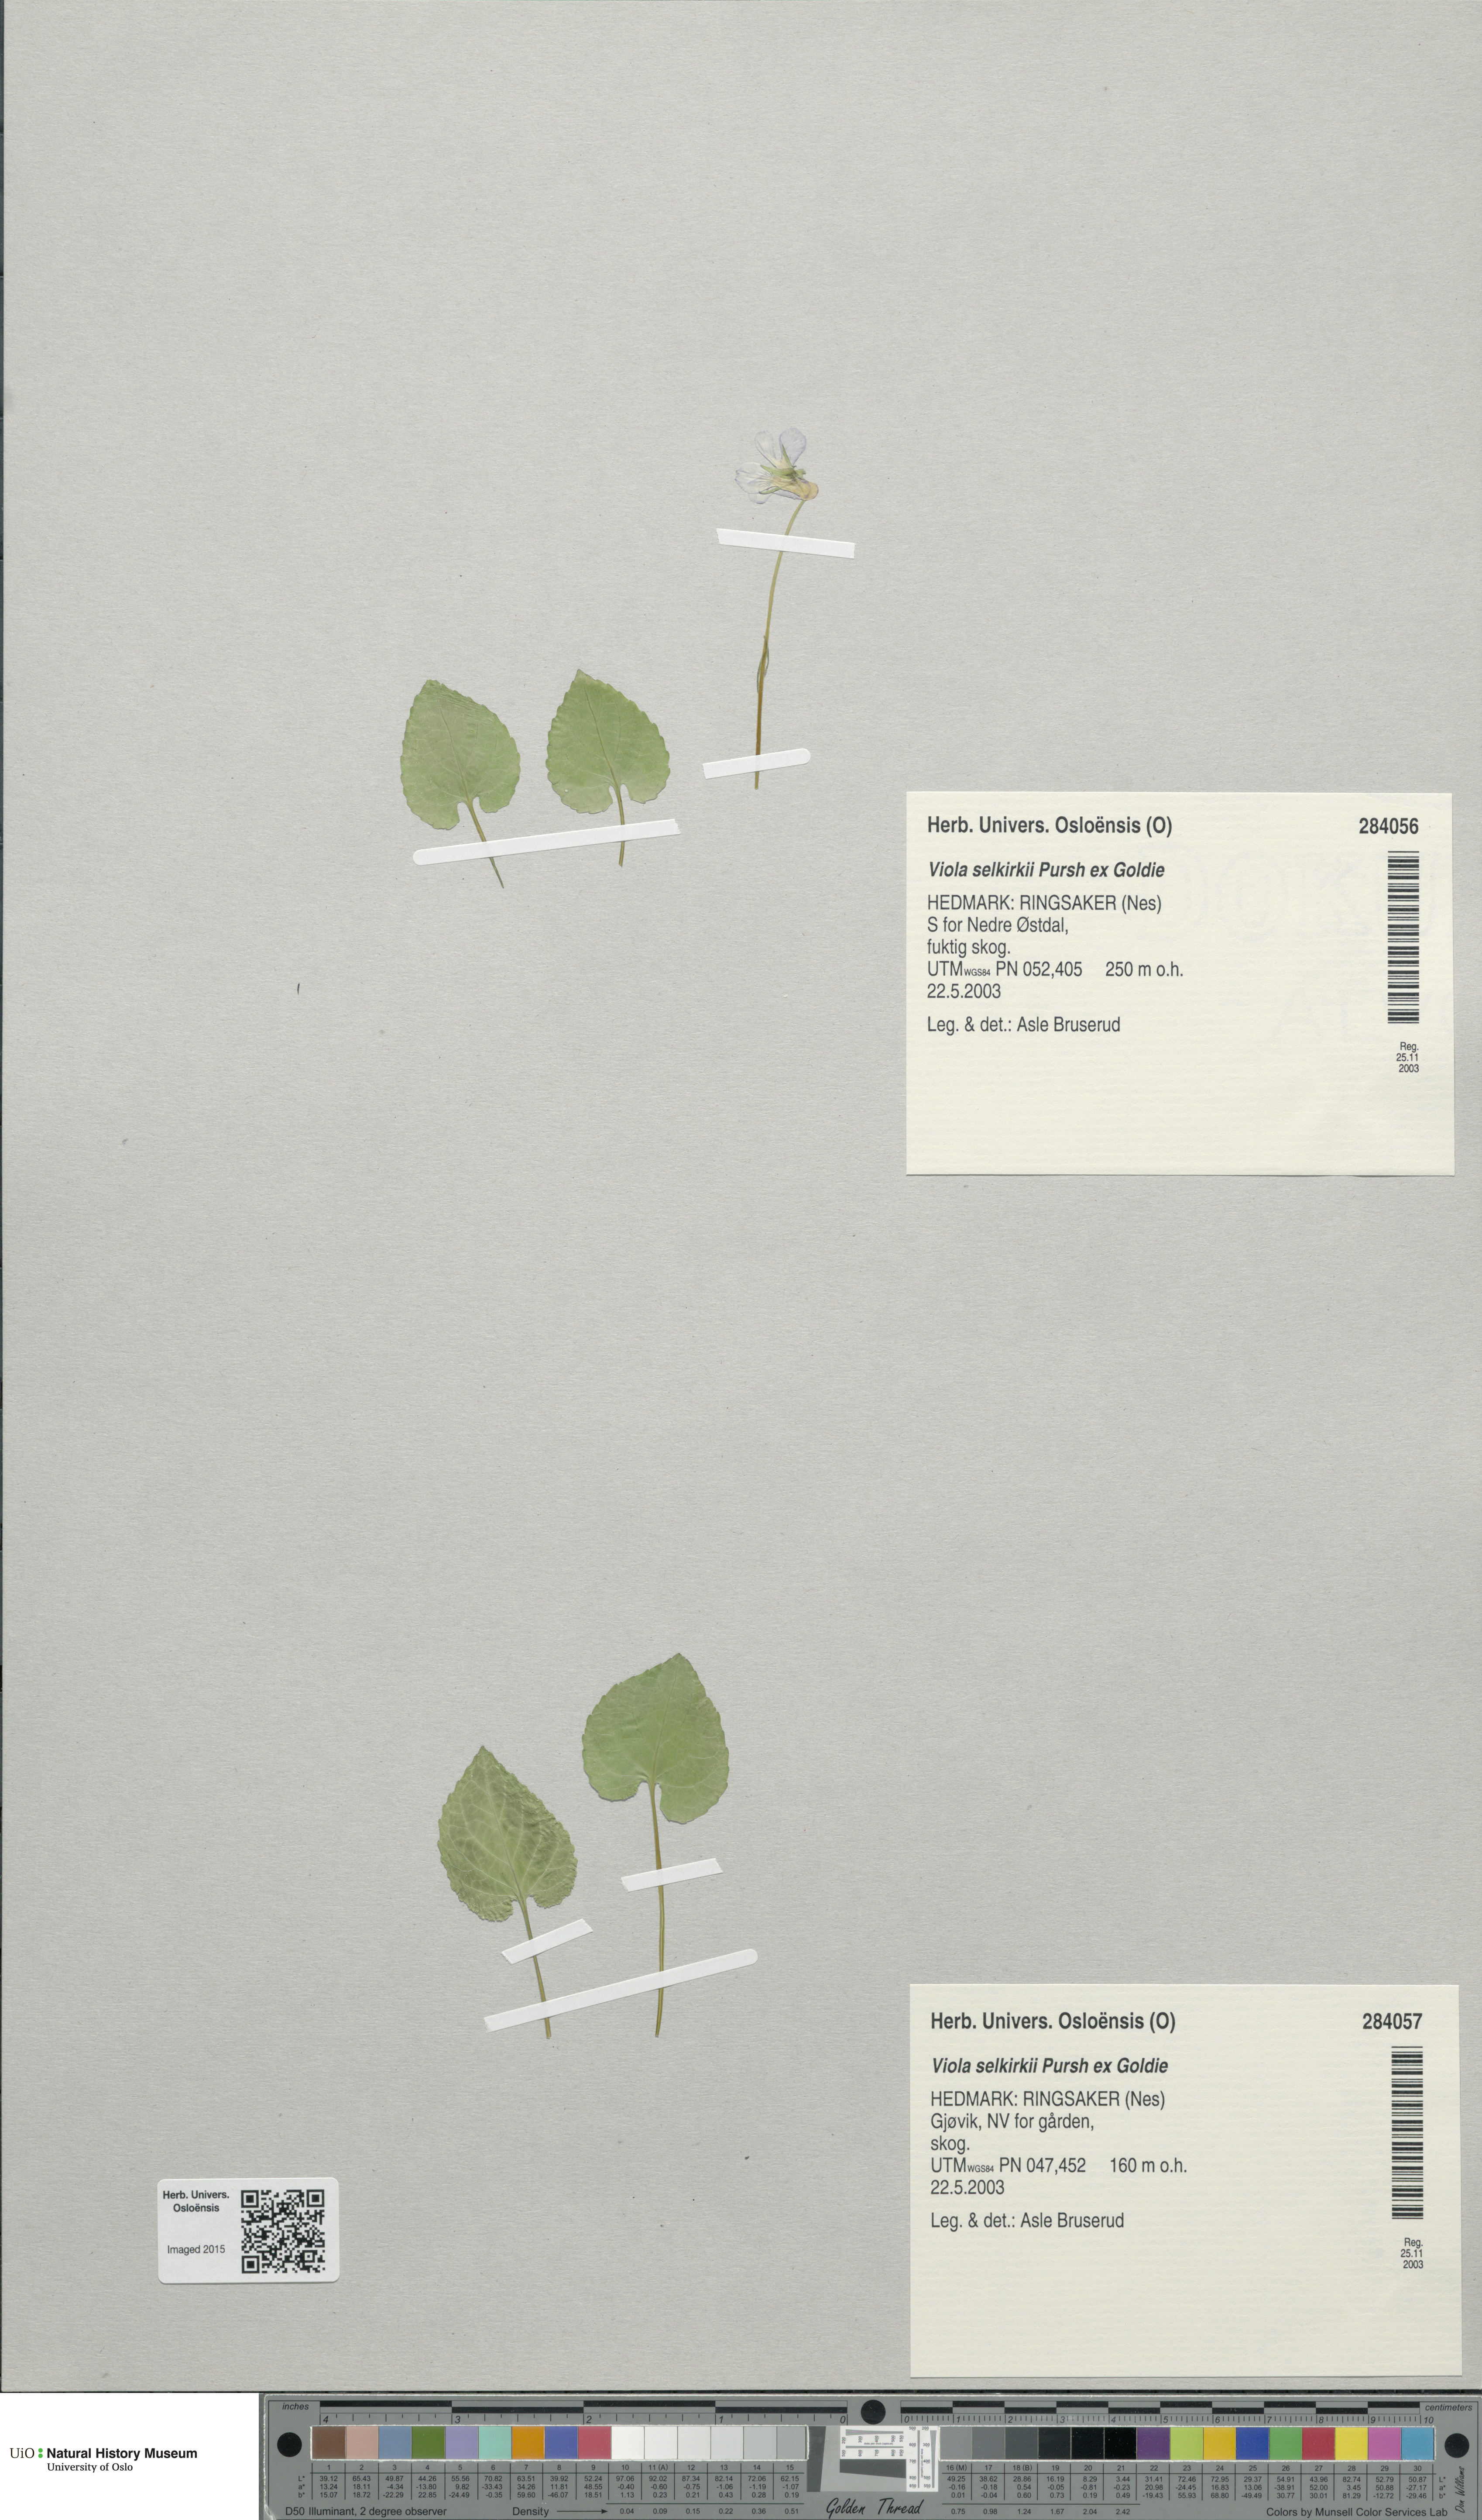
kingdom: Plantae
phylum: Tracheophyta
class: Magnoliopsida
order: Malpighiales
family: Violaceae
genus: Viola
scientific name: Viola selkirkii
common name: Selkirk's violet
